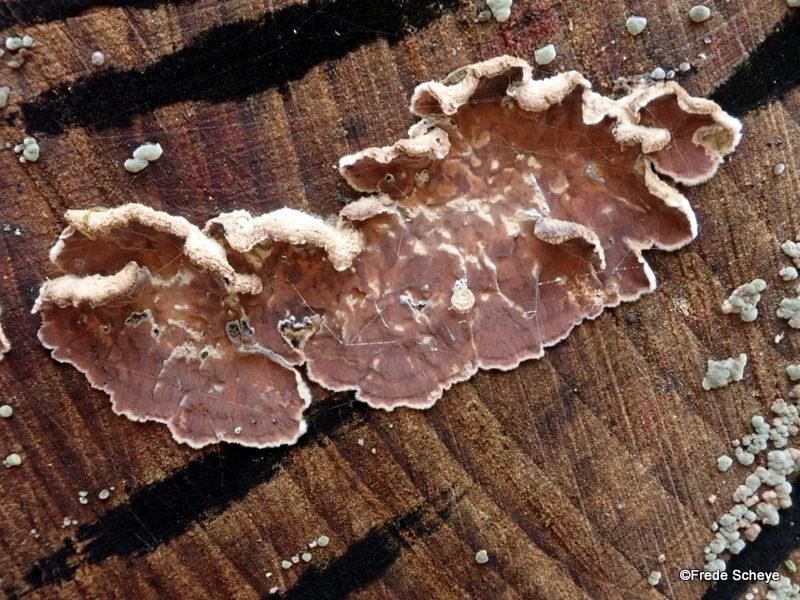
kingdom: Fungi
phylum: Basidiomycota
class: Agaricomycetes
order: Agaricales
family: Cyphellaceae
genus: Chondrostereum
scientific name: Chondrostereum purpureum
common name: purpurlædersvamp
